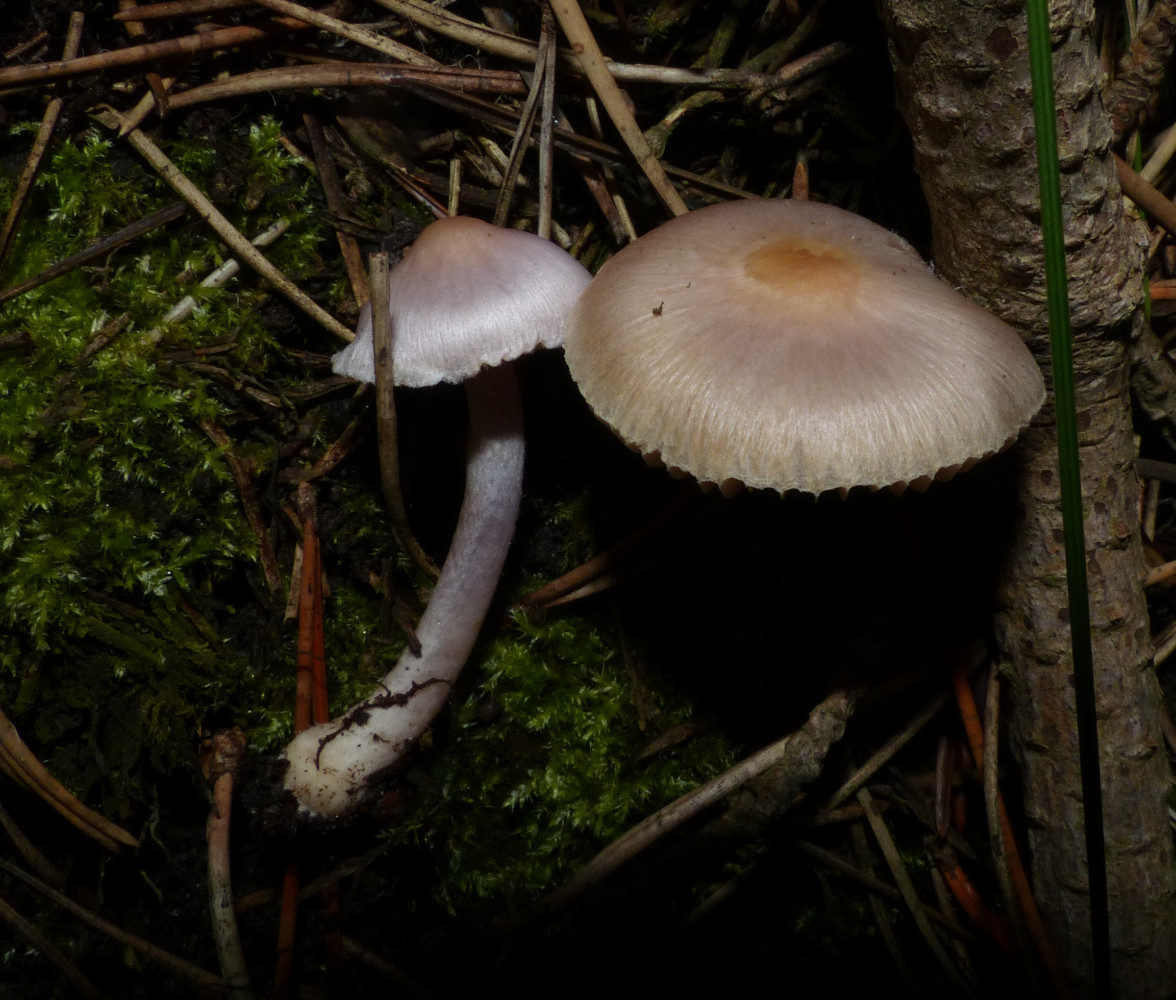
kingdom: Fungi
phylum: Basidiomycota
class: Agaricomycetes
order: Agaricales
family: Inocybaceae
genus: Inocybe
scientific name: Inocybe geophylla
